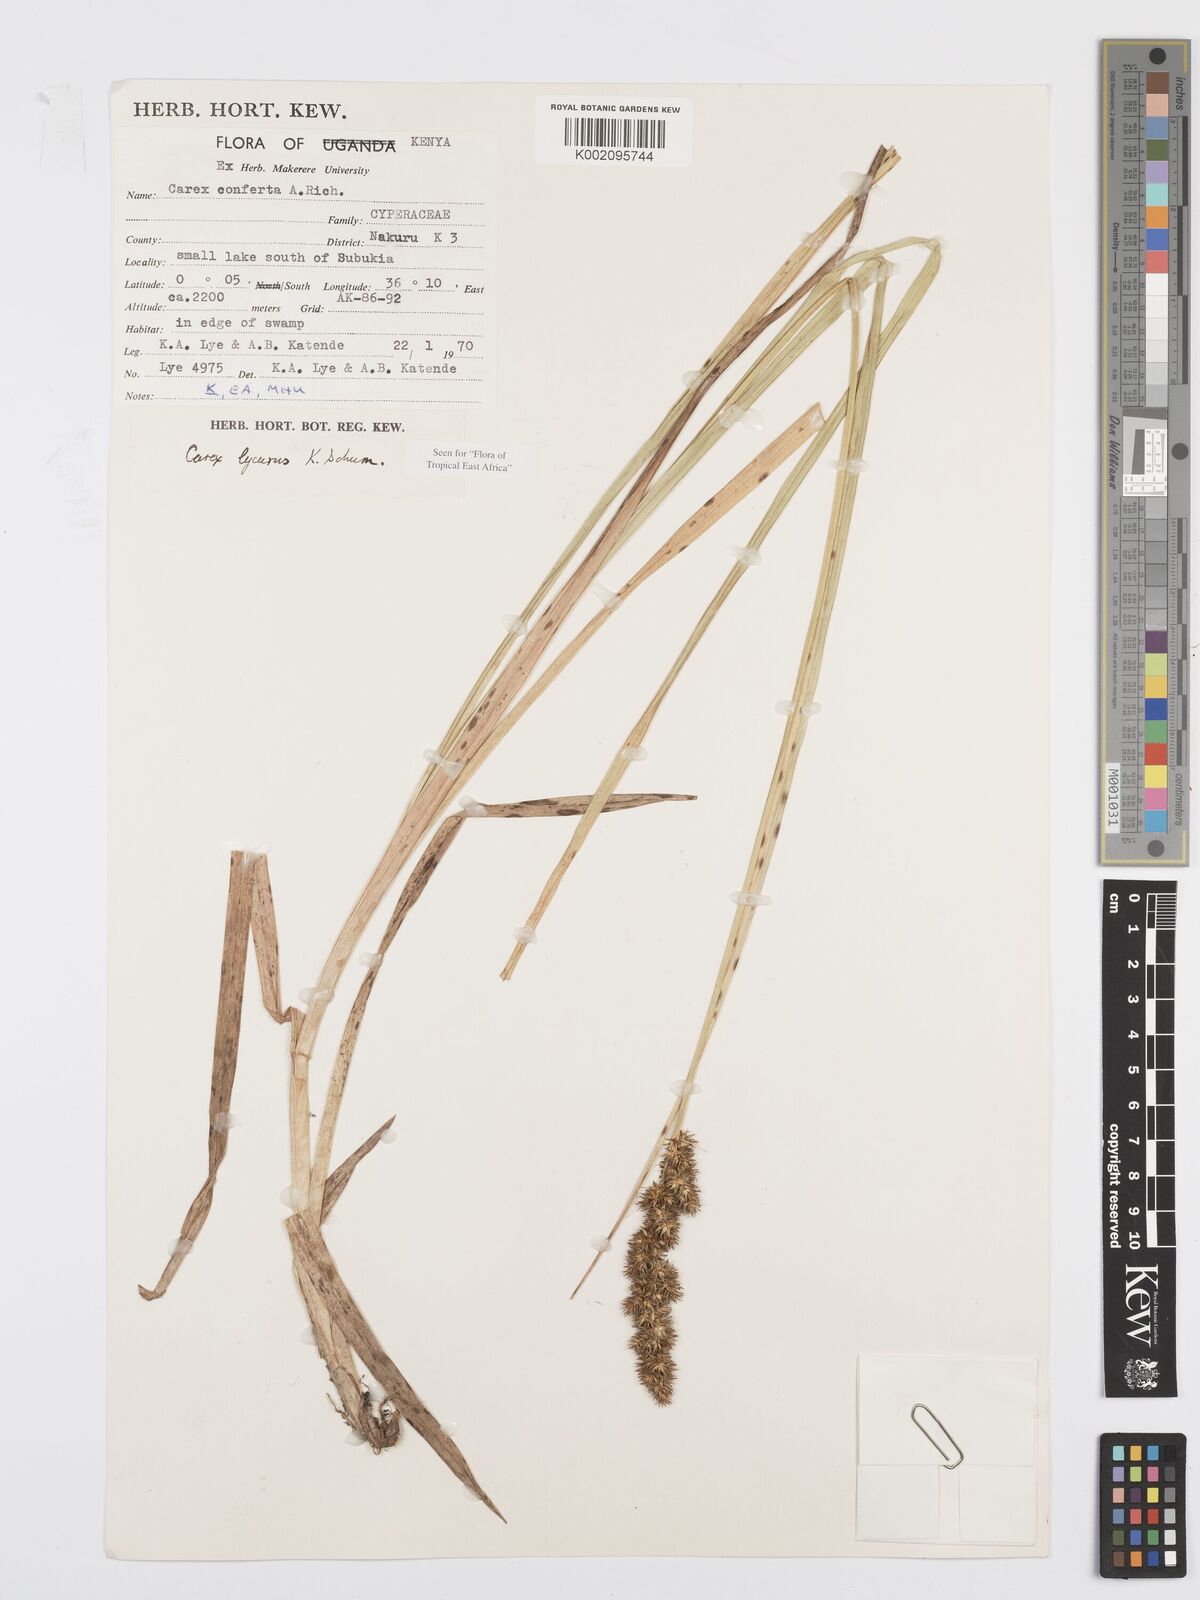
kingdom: Plantae
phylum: Tracheophyta
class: Liliopsida
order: Poales
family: Cyperaceae
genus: Carex
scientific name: Carex lycurus
